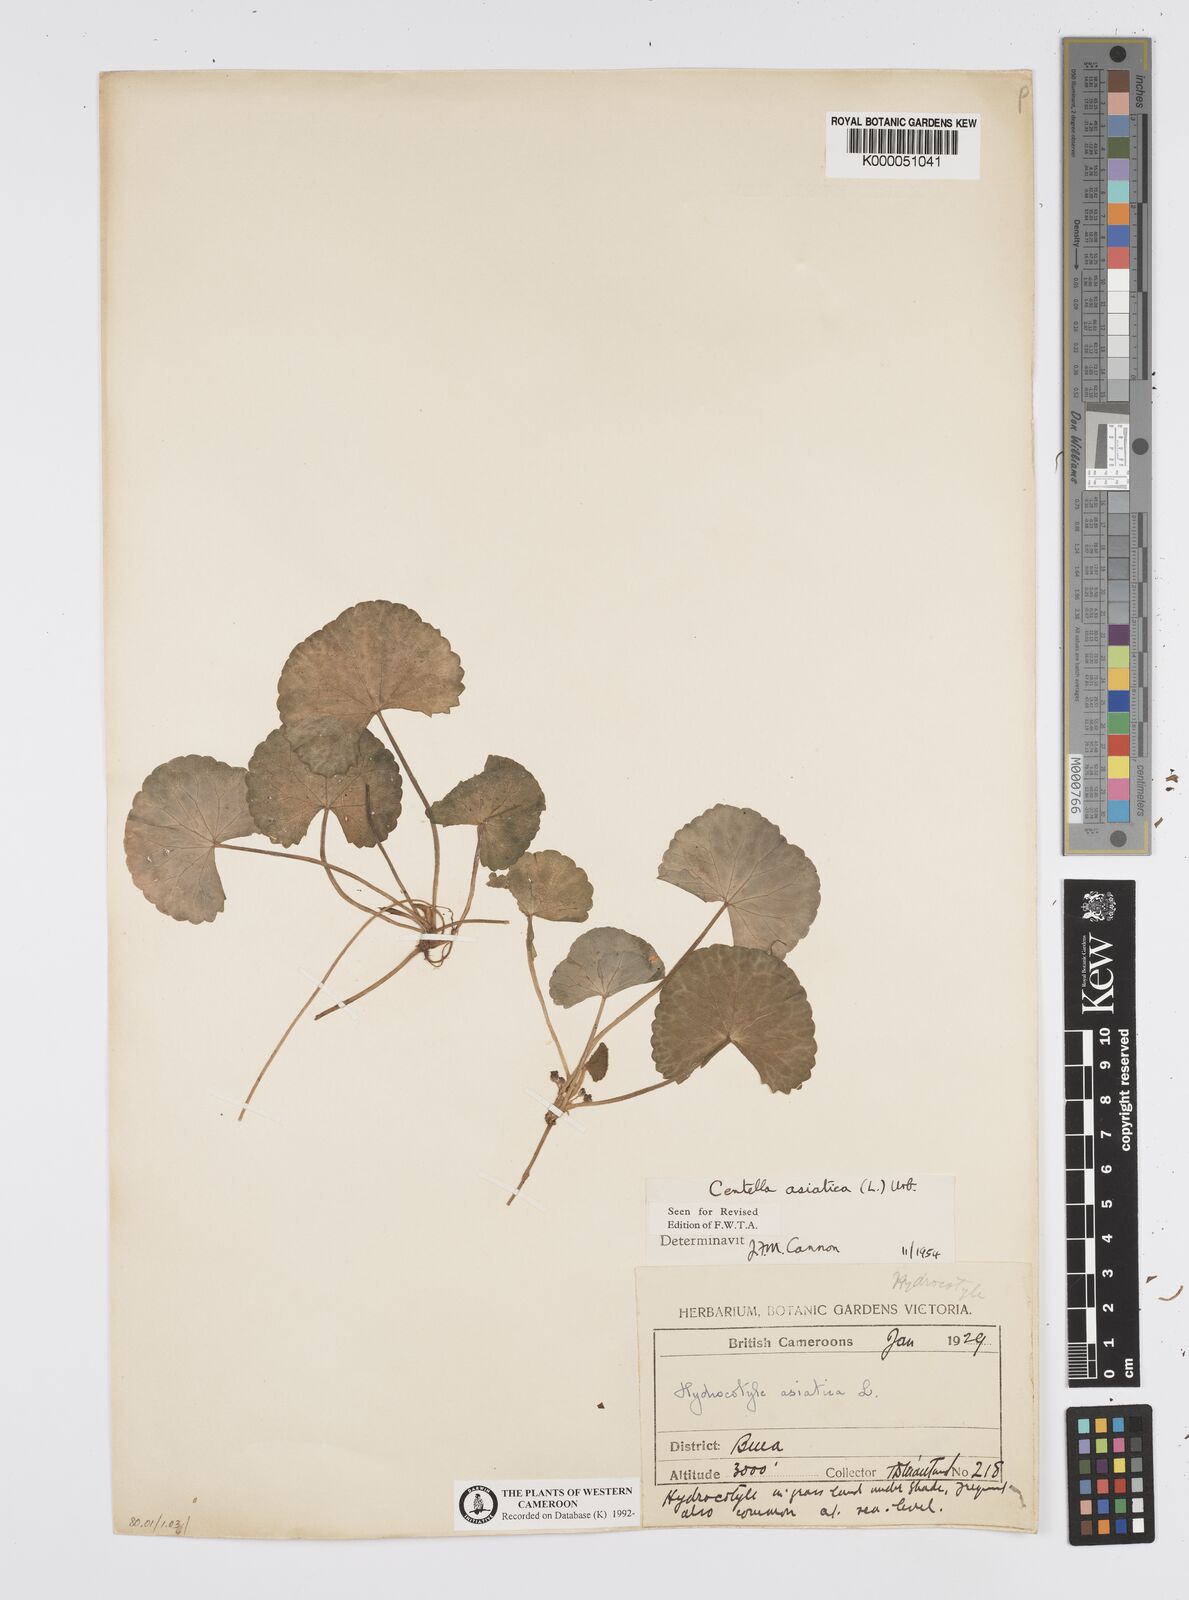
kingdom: Plantae
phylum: Tracheophyta
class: Magnoliopsida
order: Apiales
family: Apiaceae
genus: Centella
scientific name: Centella asiatica
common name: Spadeleaf
